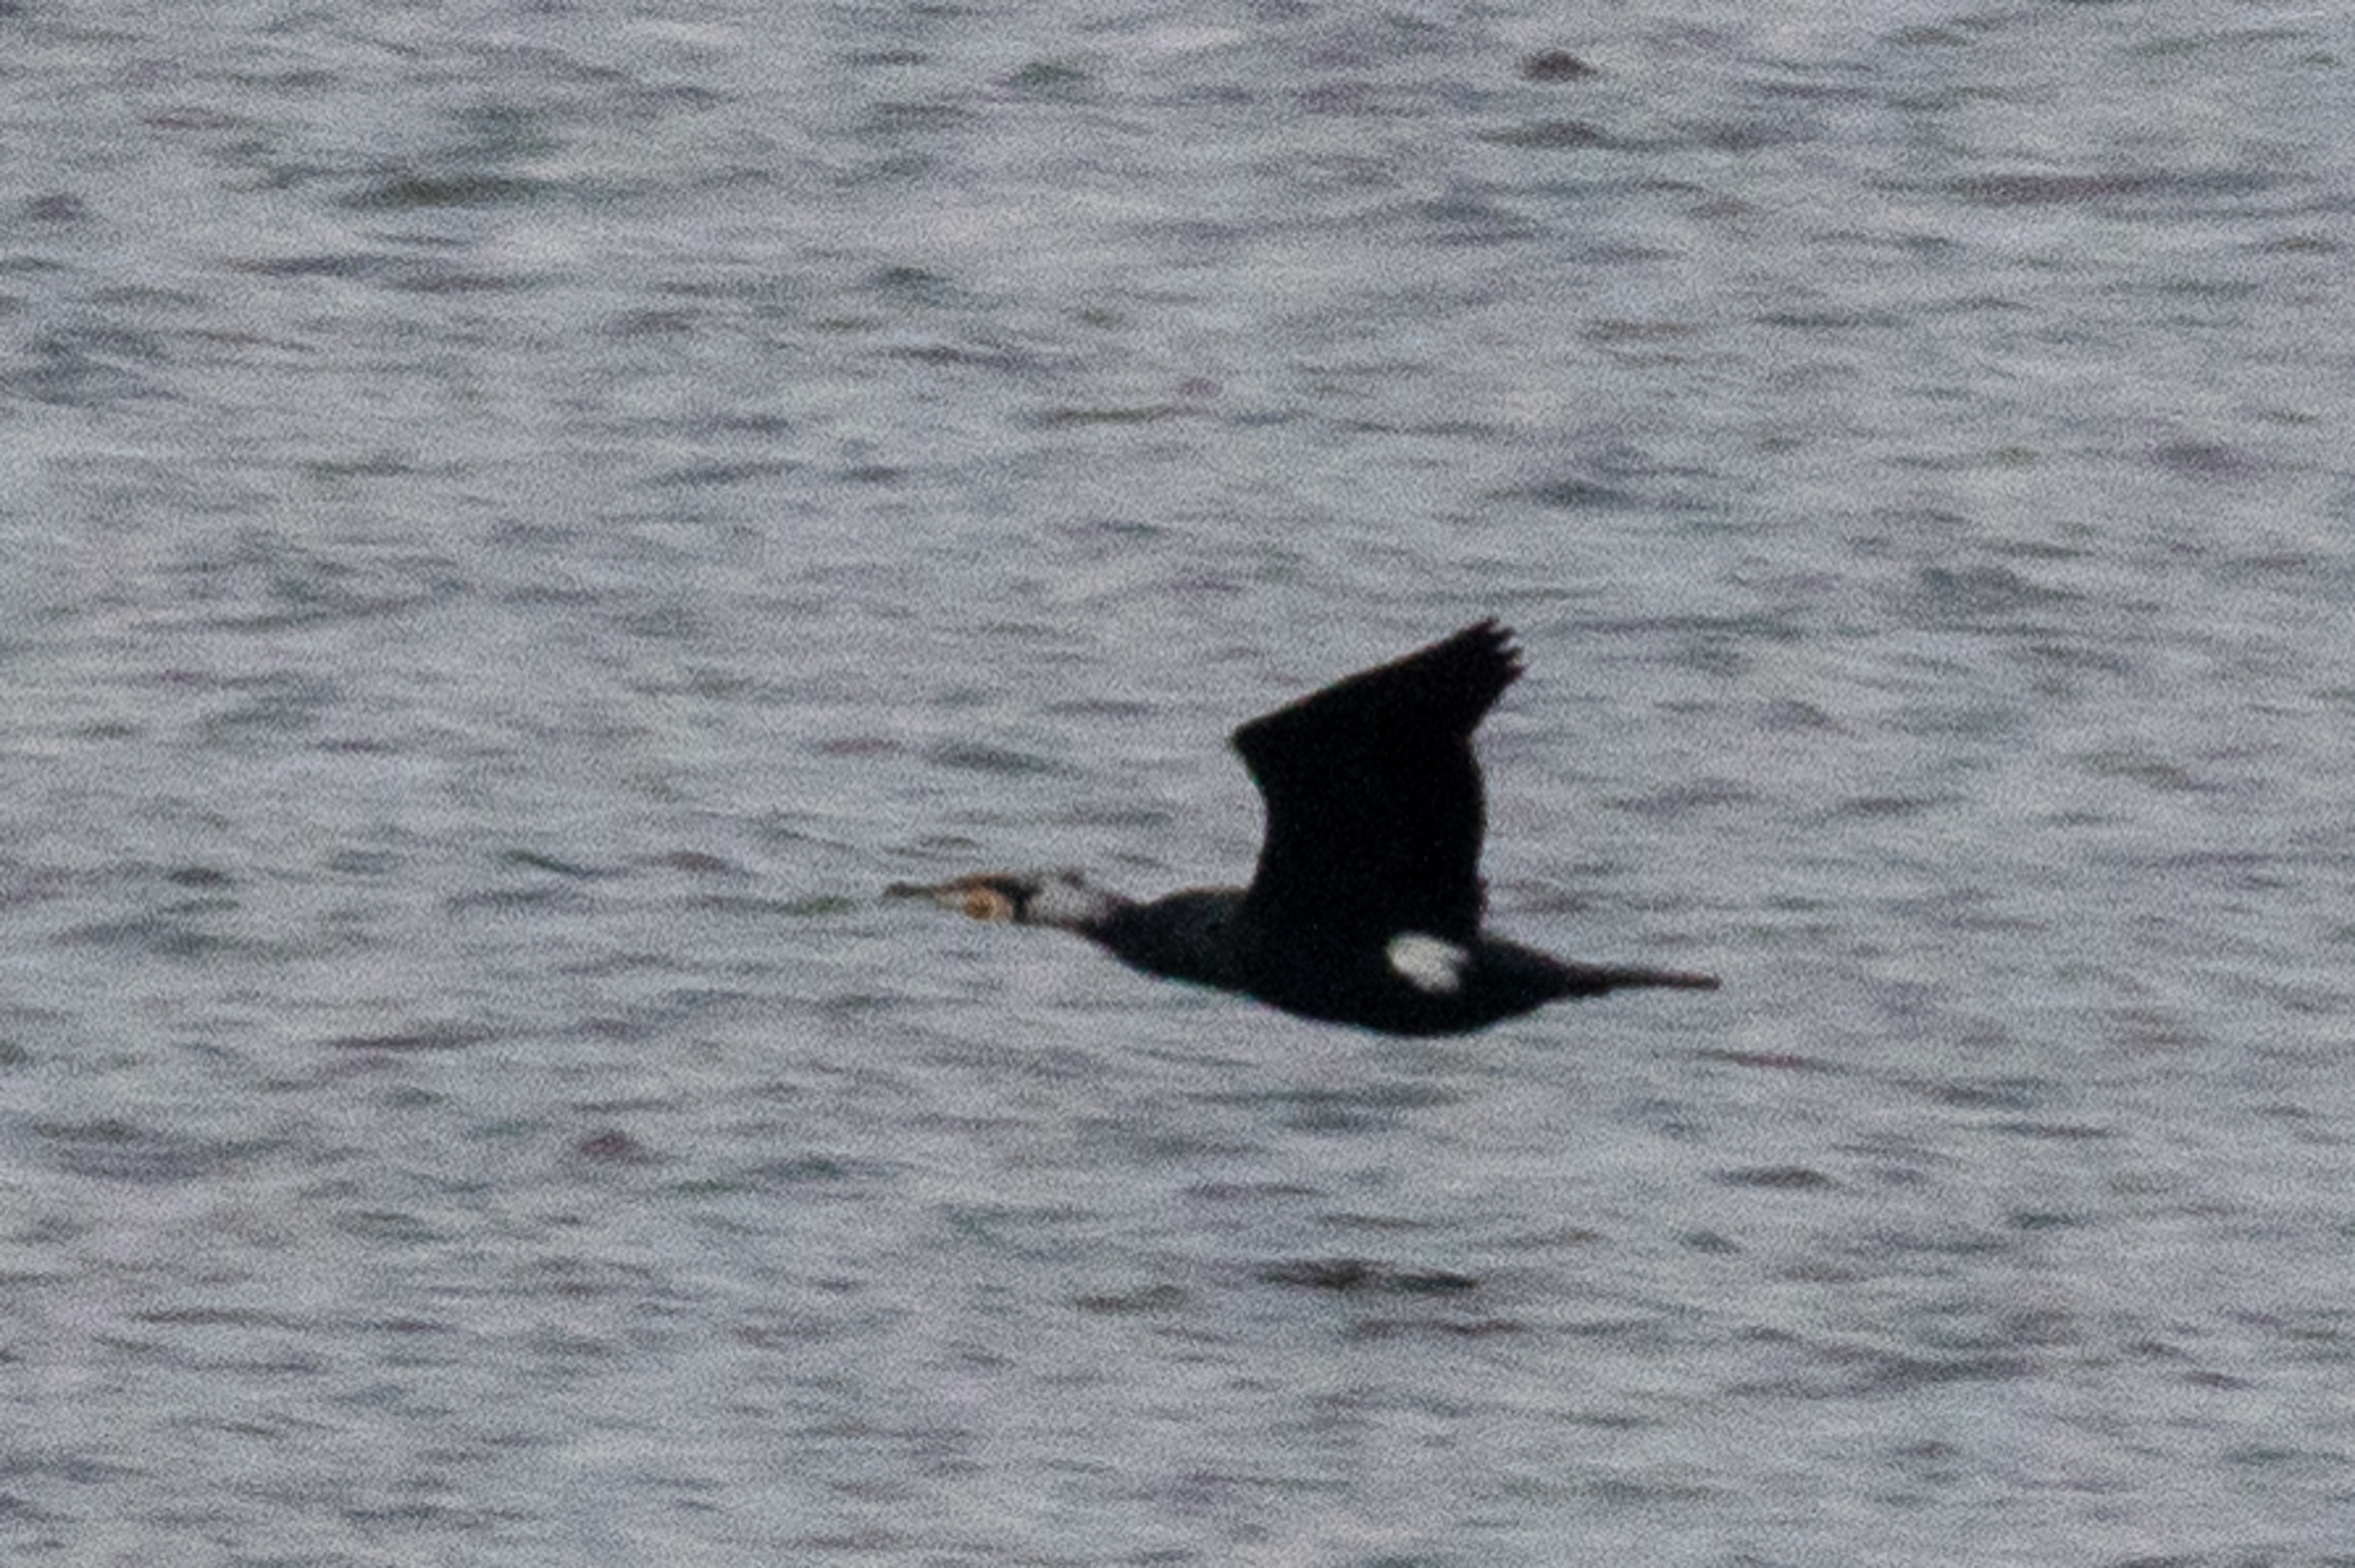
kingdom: Animalia
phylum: Chordata
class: Aves
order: Suliformes
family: Phalacrocoracidae
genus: Phalacrocorax
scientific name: Phalacrocorax carbo
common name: Skarv
